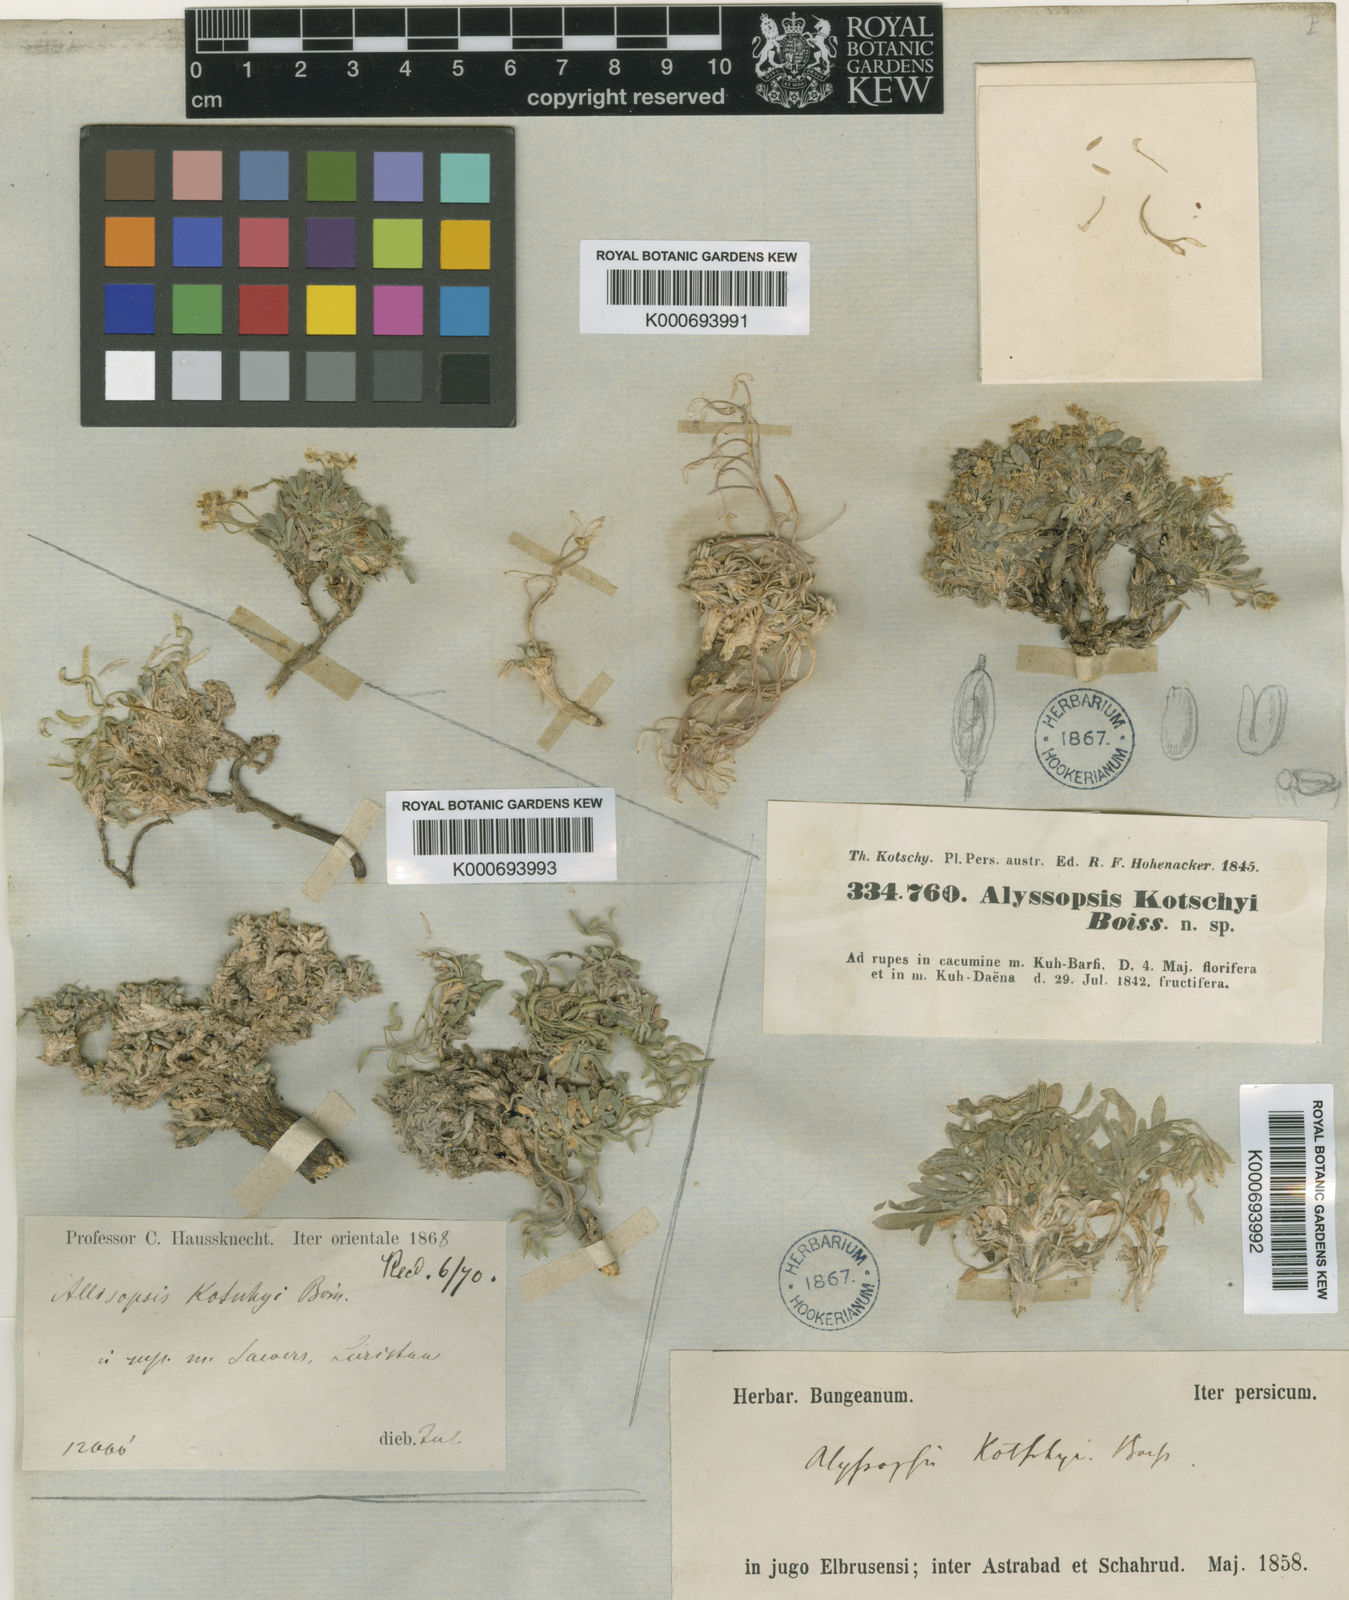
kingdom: Plantae
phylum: Tracheophyta
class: Magnoliopsida
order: Brassicales
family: Brassicaceae
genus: Dielsiocharis
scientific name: Dielsiocharis kotschyi
